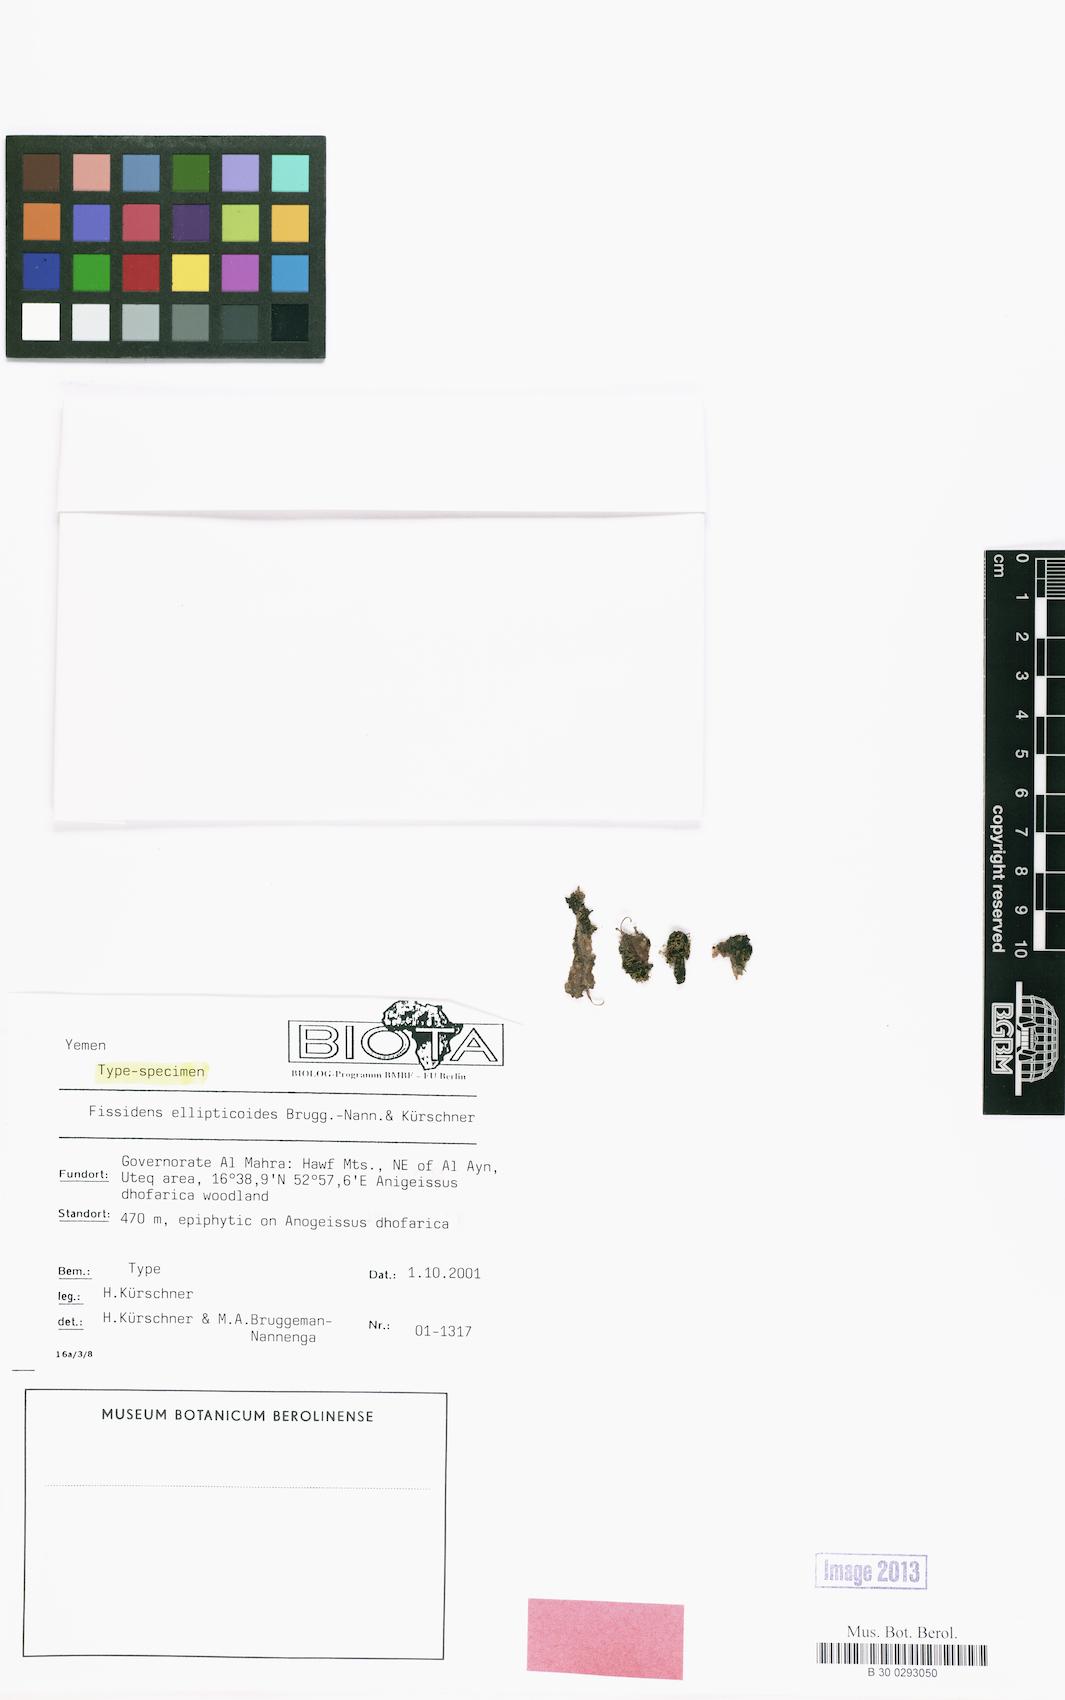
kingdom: Plantae
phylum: Bryophyta
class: Bryopsida
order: Dicranales
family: Fissidentaceae
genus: Fissidens
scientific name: Fissidens ellipticoides
